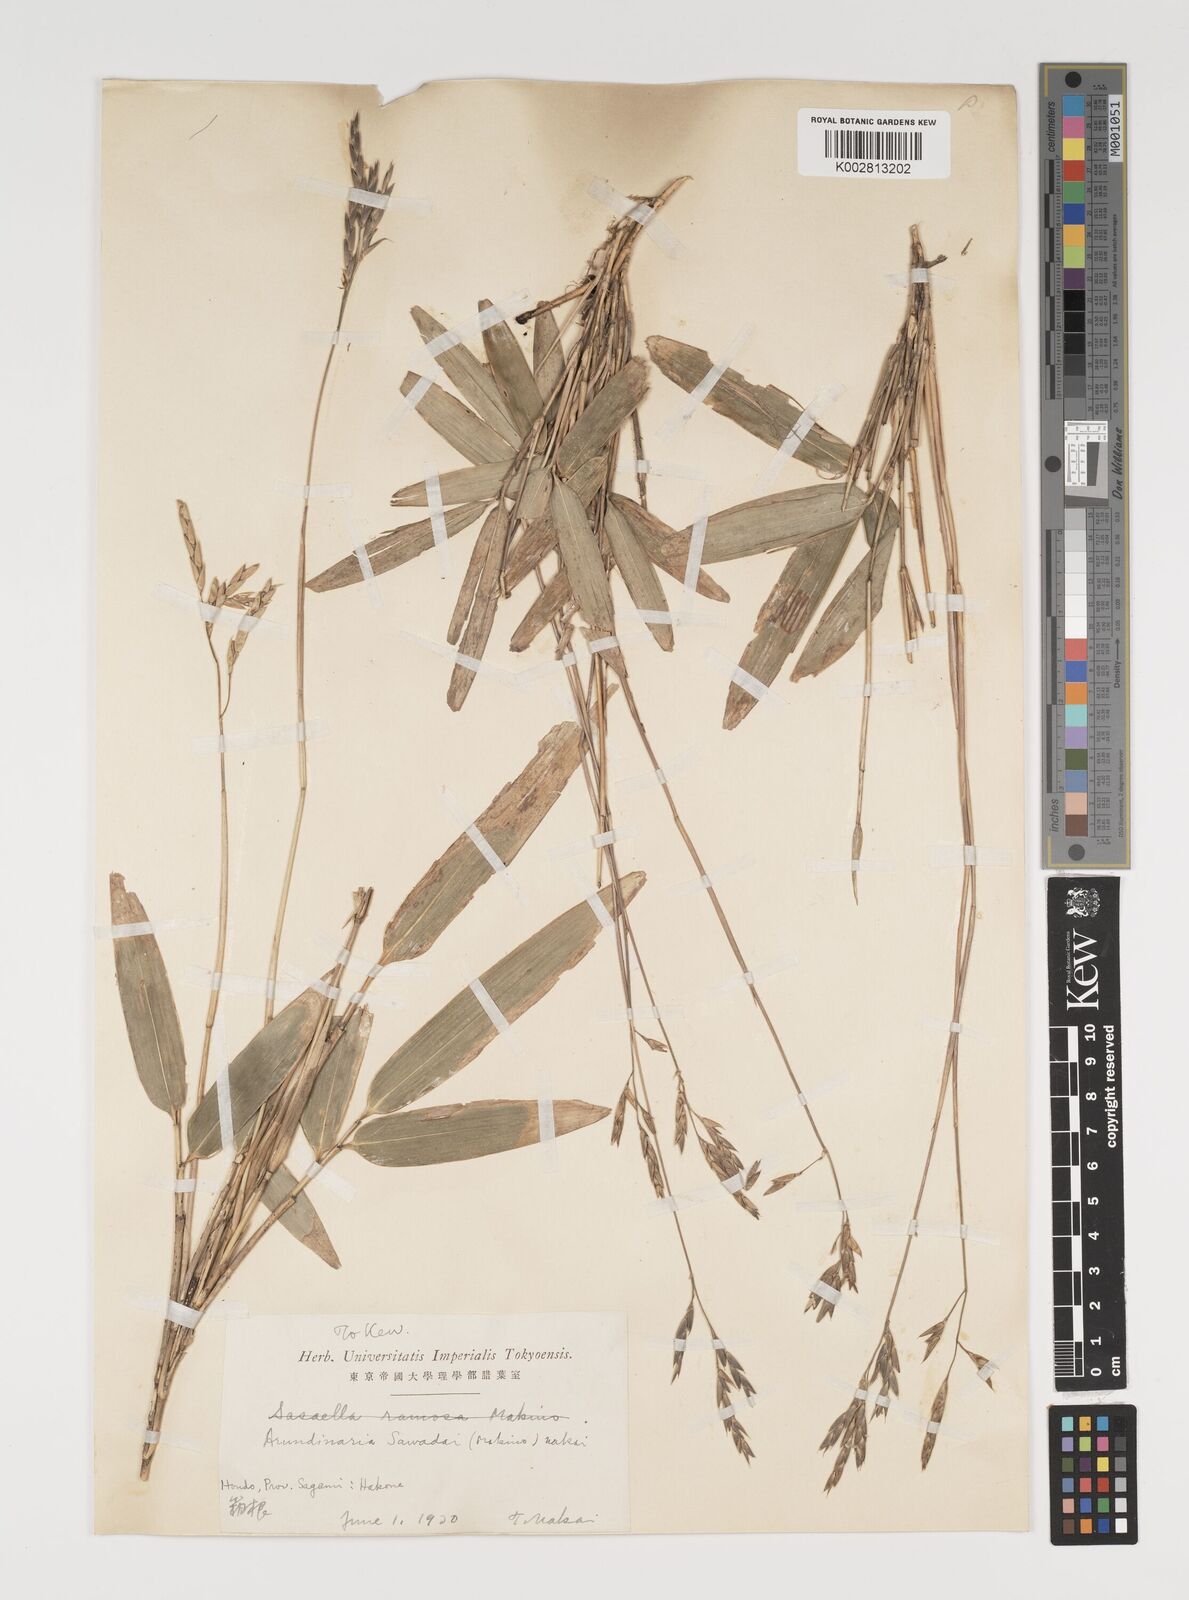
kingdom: Plantae
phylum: Tracheophyta
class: Liliopsida
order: Poales
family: Poaceae
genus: Sasa
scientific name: Sasa
